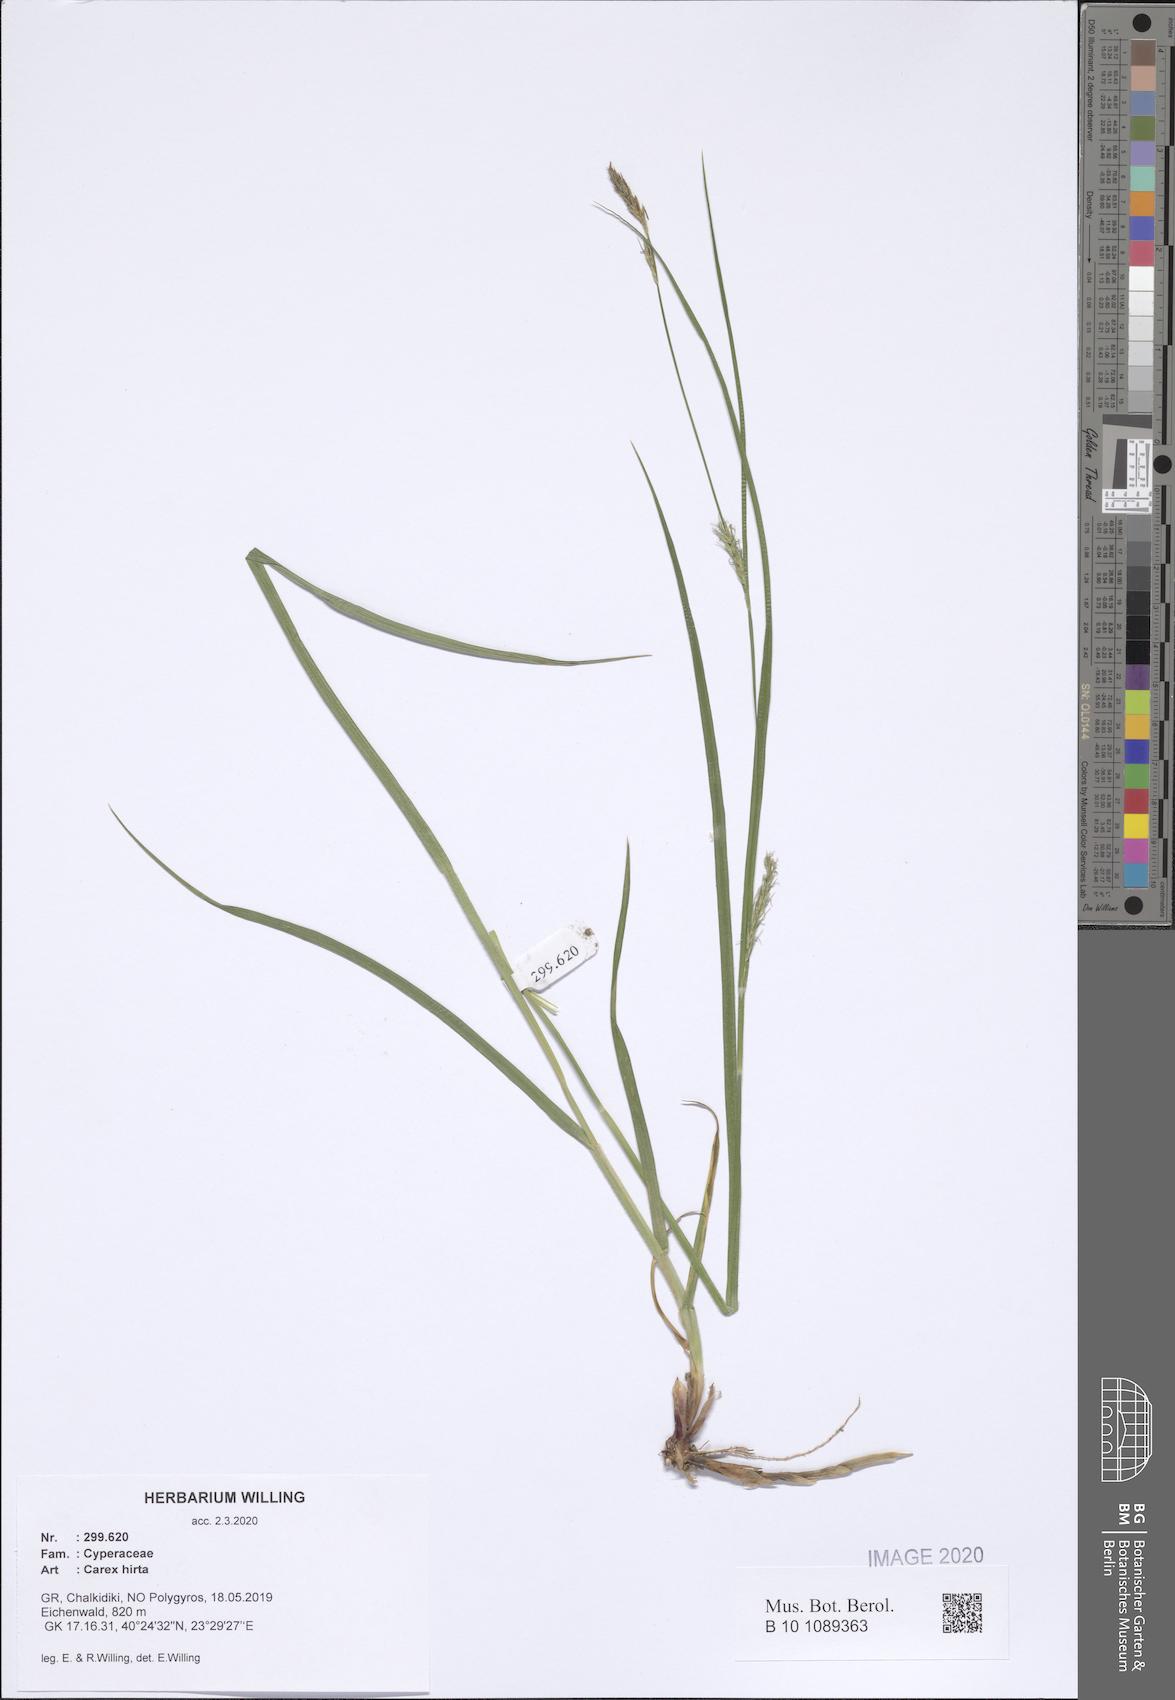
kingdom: Plantae
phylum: Tracheophyta
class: Liliopsida
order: Poales
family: Cyperaceae
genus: Carex
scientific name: Carex hirta
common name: Hairy sedge
